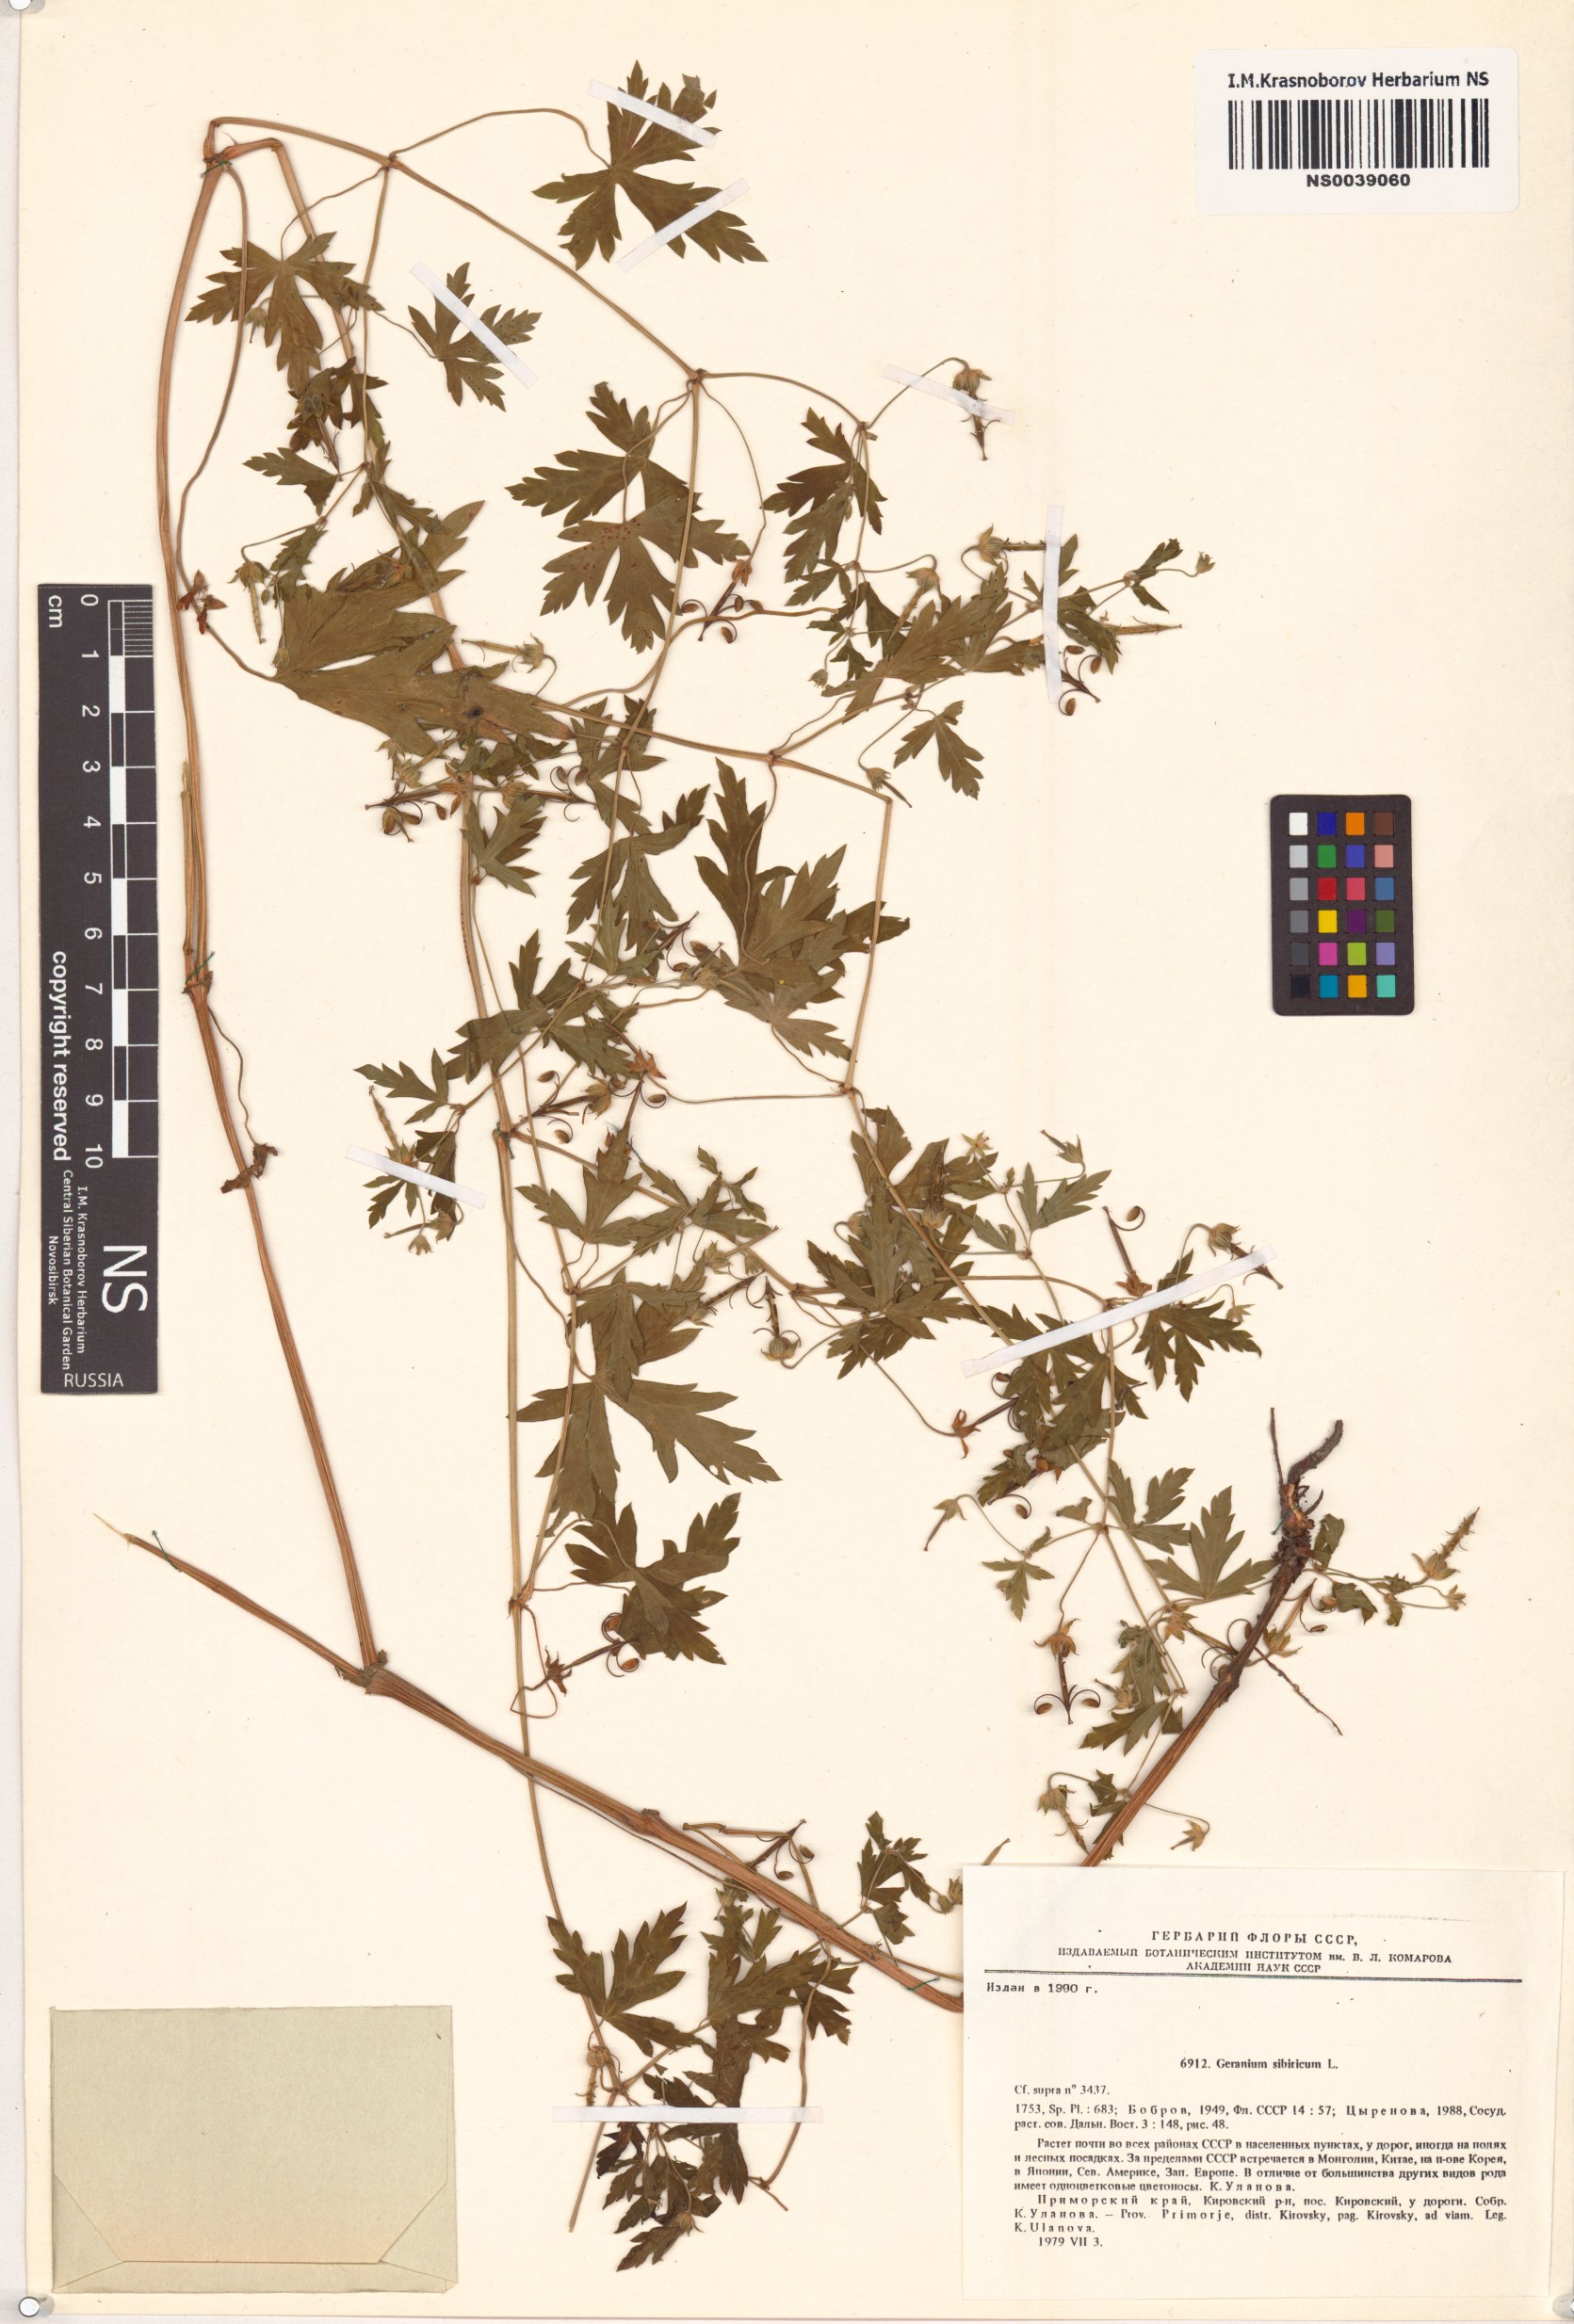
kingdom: Plantae
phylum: Tracheophyta
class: Magnoliopsida
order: Geraniales
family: Geraniaceae
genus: Geranium
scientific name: Geranium sibiricum
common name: Siberian crane's-bill
